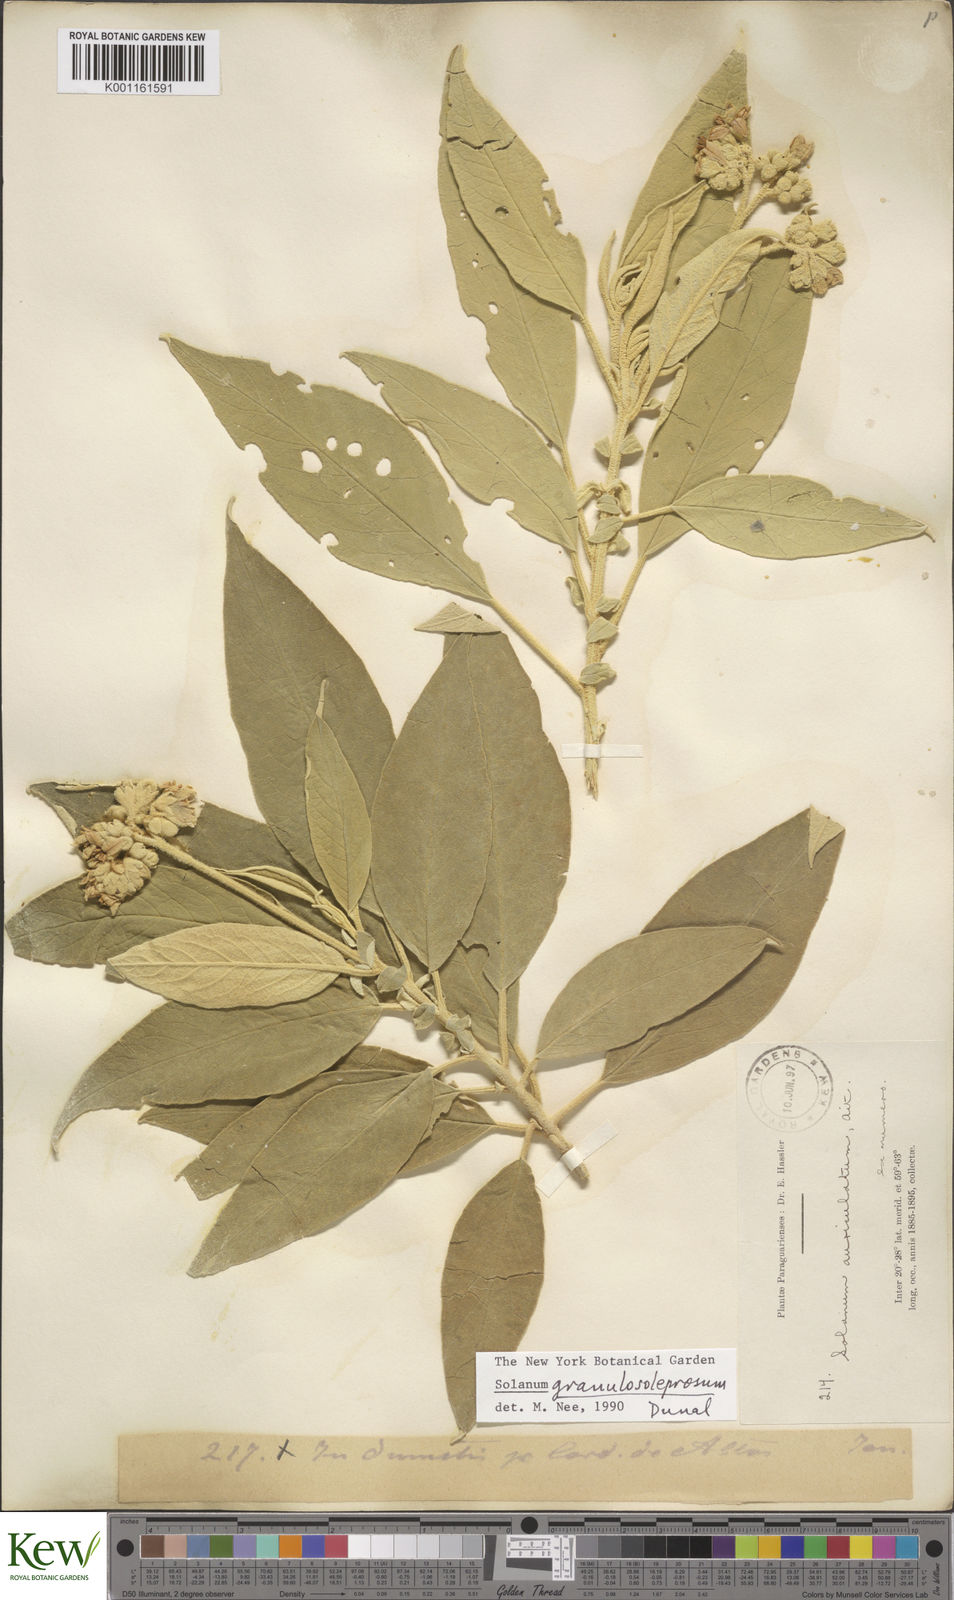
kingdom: Plantae
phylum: Tracheophyta
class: Magnoliopsida
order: Solanales
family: Solanaceae
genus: Solanum
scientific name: Solanum granulosoleprosum
